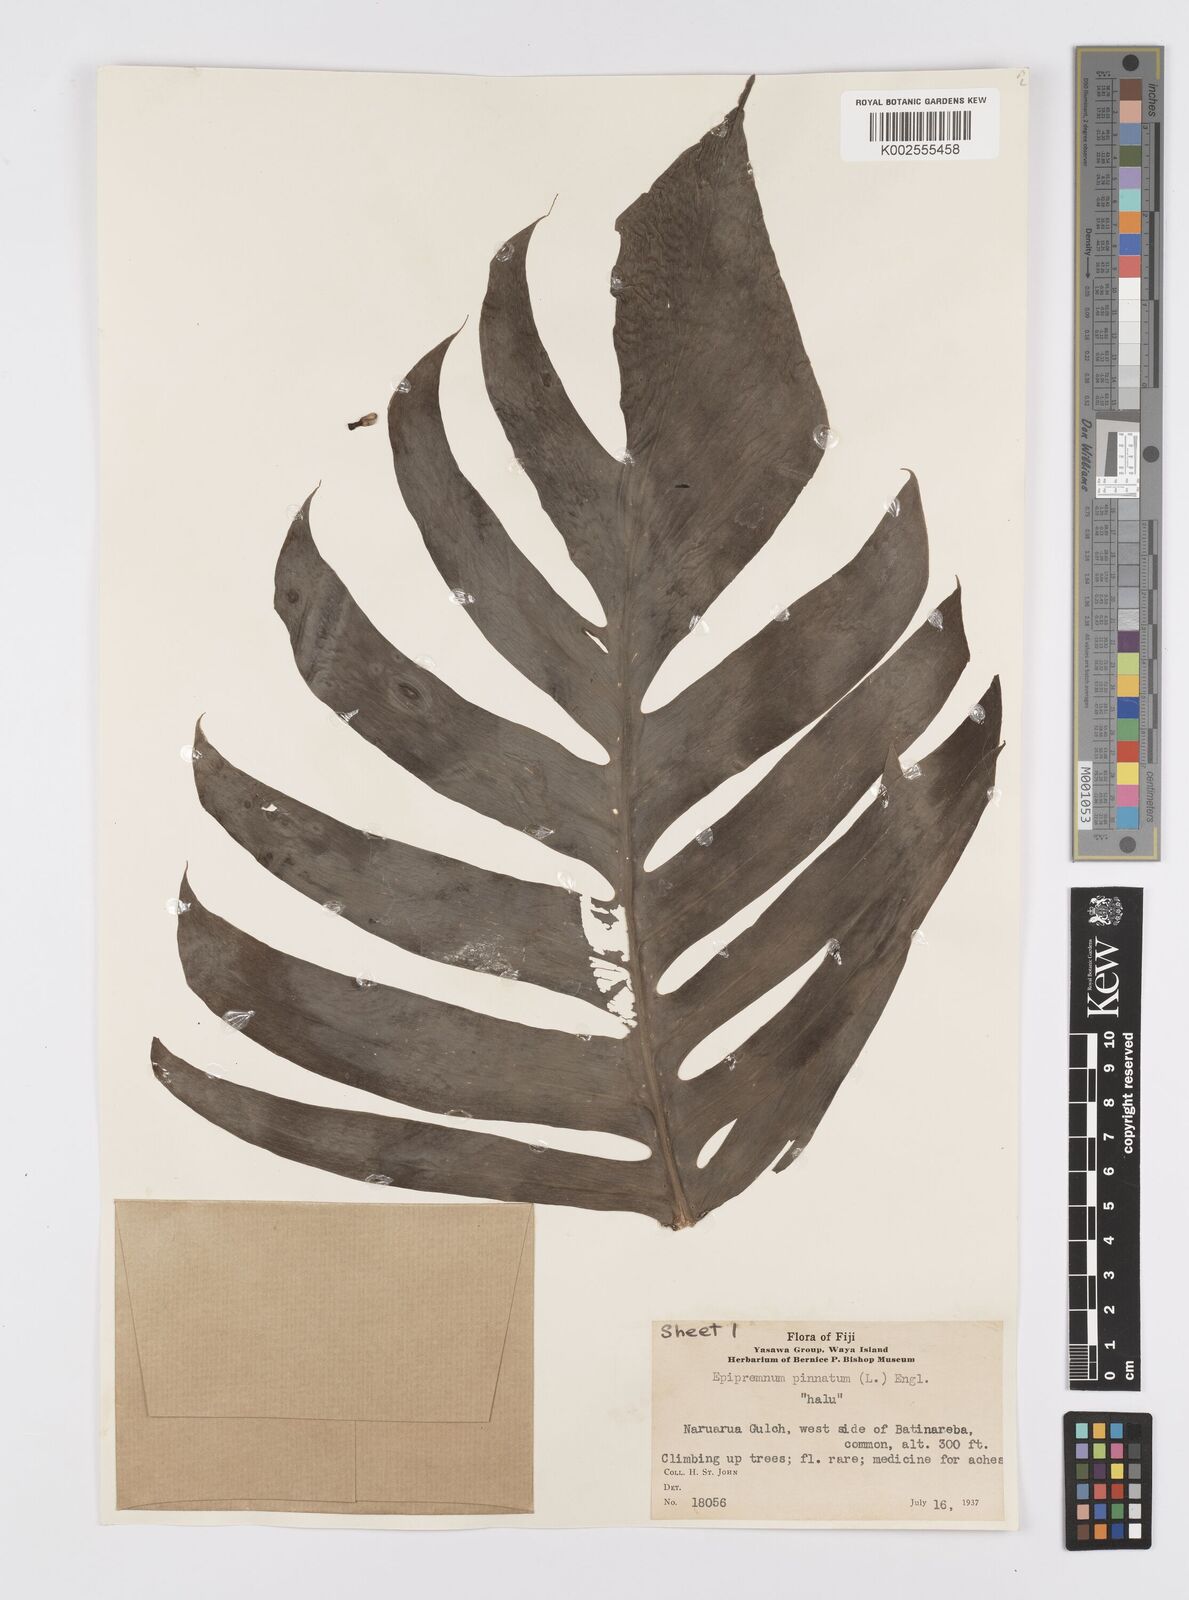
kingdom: Plantae
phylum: Tracheophyta
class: Liliopsida
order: Alismatales
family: Araceae
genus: Epipremnum
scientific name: Epipremnum pinnatum
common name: Centipede tongavine
